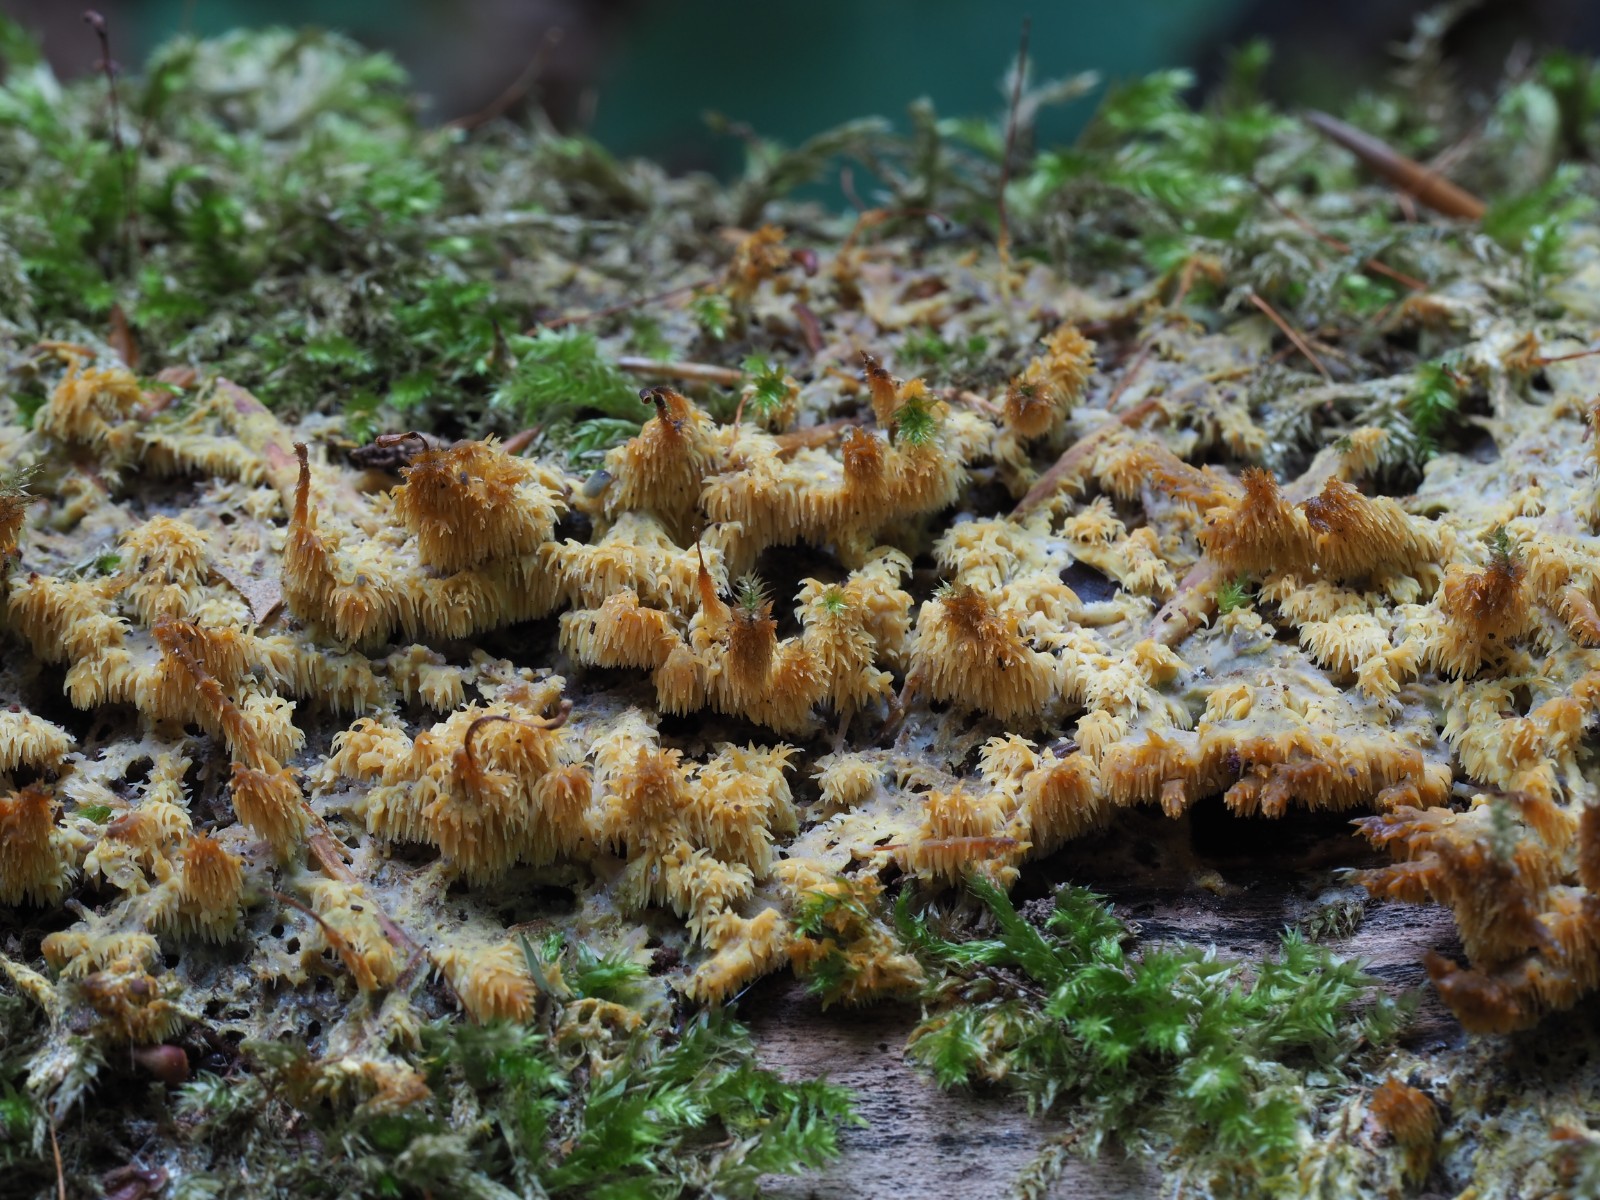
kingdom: Fungi
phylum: Basidiomycota
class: Agaricomycetes
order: Polyporales
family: Meruliaceae
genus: Mycoacia
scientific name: Mycoacia uda
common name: citrongul vokspig
